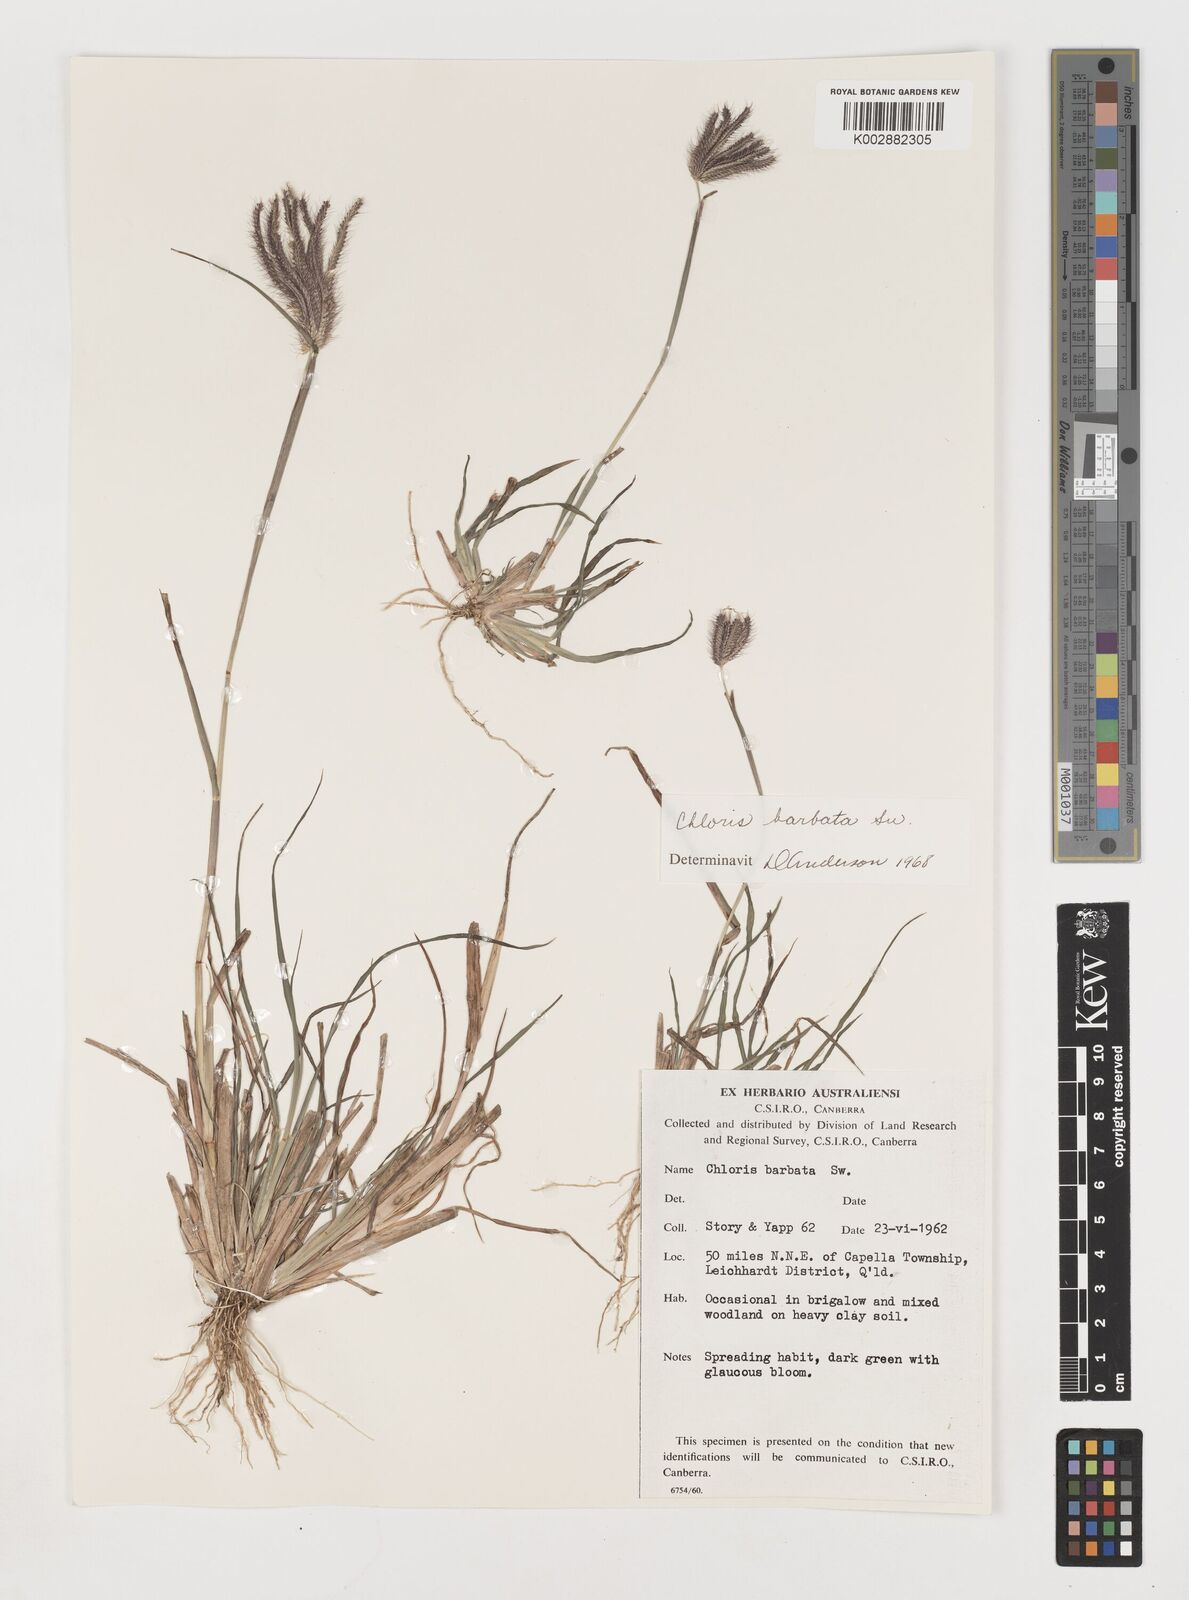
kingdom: Plantae
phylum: Tracheophyta
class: Liliopsida
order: Poales
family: Poaceae
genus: Chloris
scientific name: Chloris barbata
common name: Swollen fingergrass
